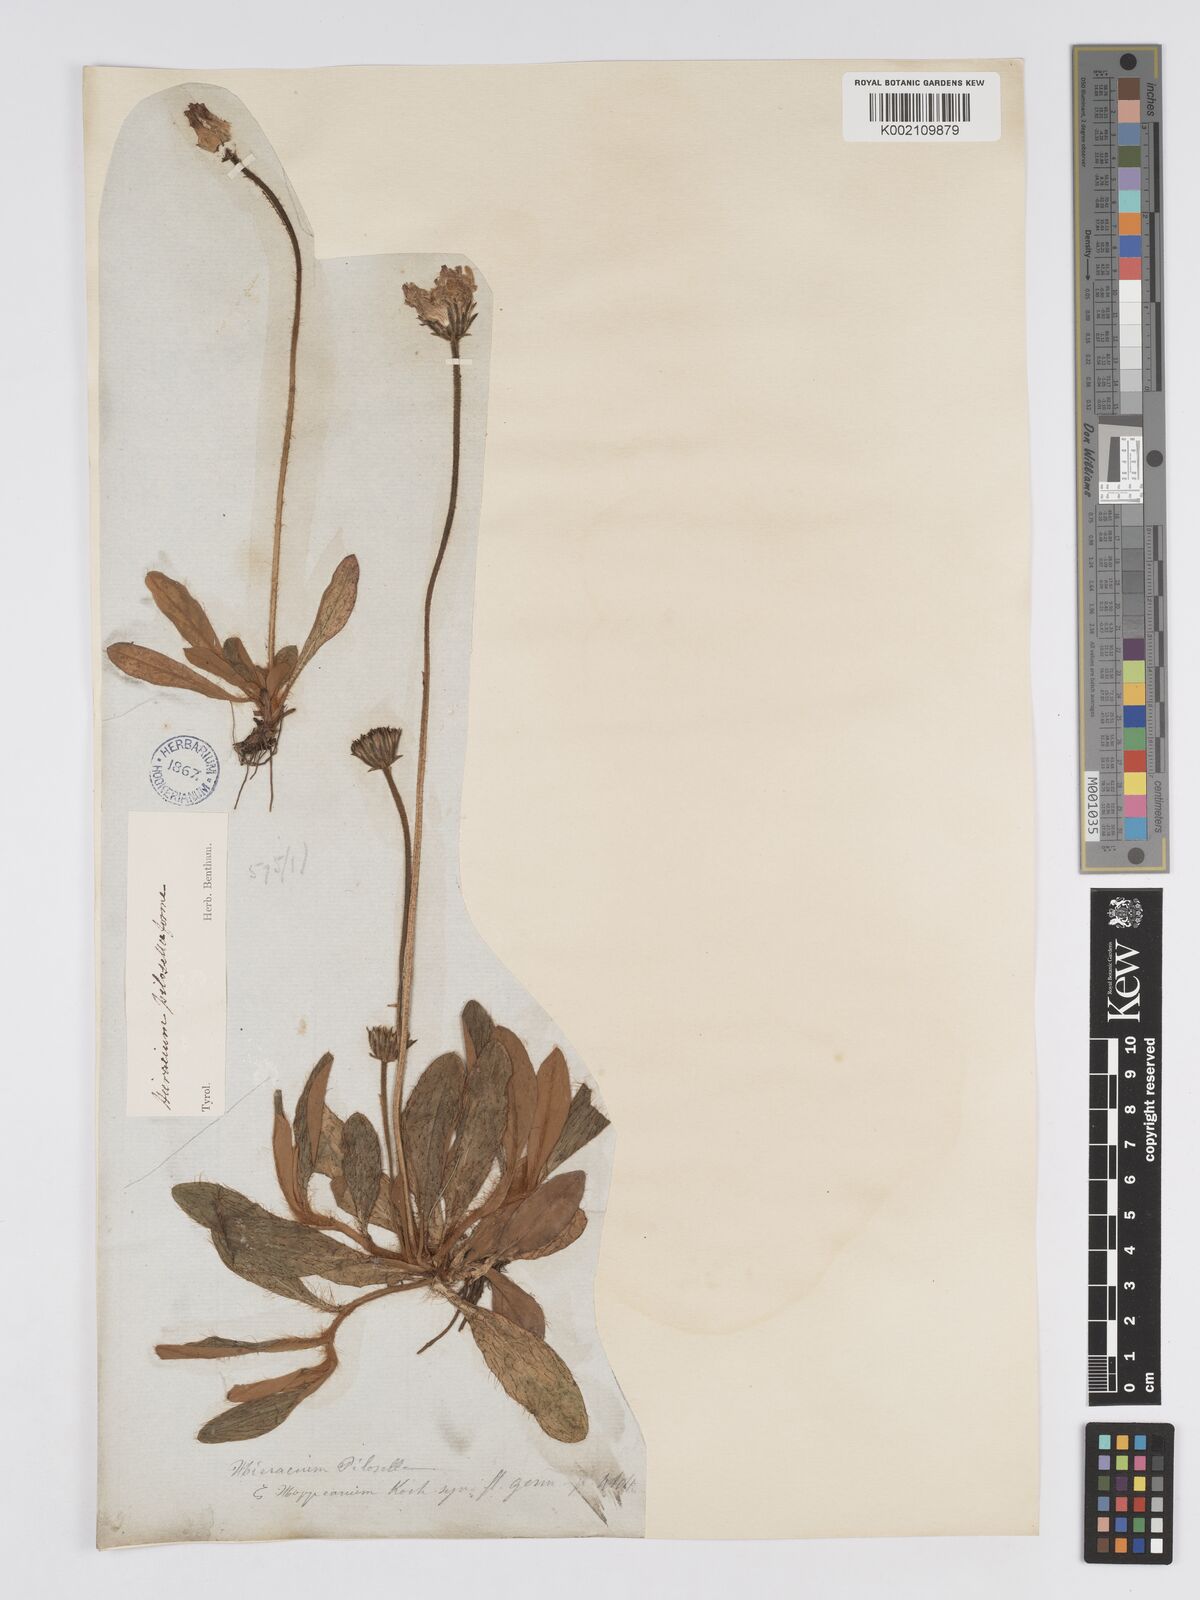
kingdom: Plantae
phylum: Tracheophyta
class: Magnoliopsida
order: Asterales
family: Asteraceae
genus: Pilosella
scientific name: Pilosella hoppeana
